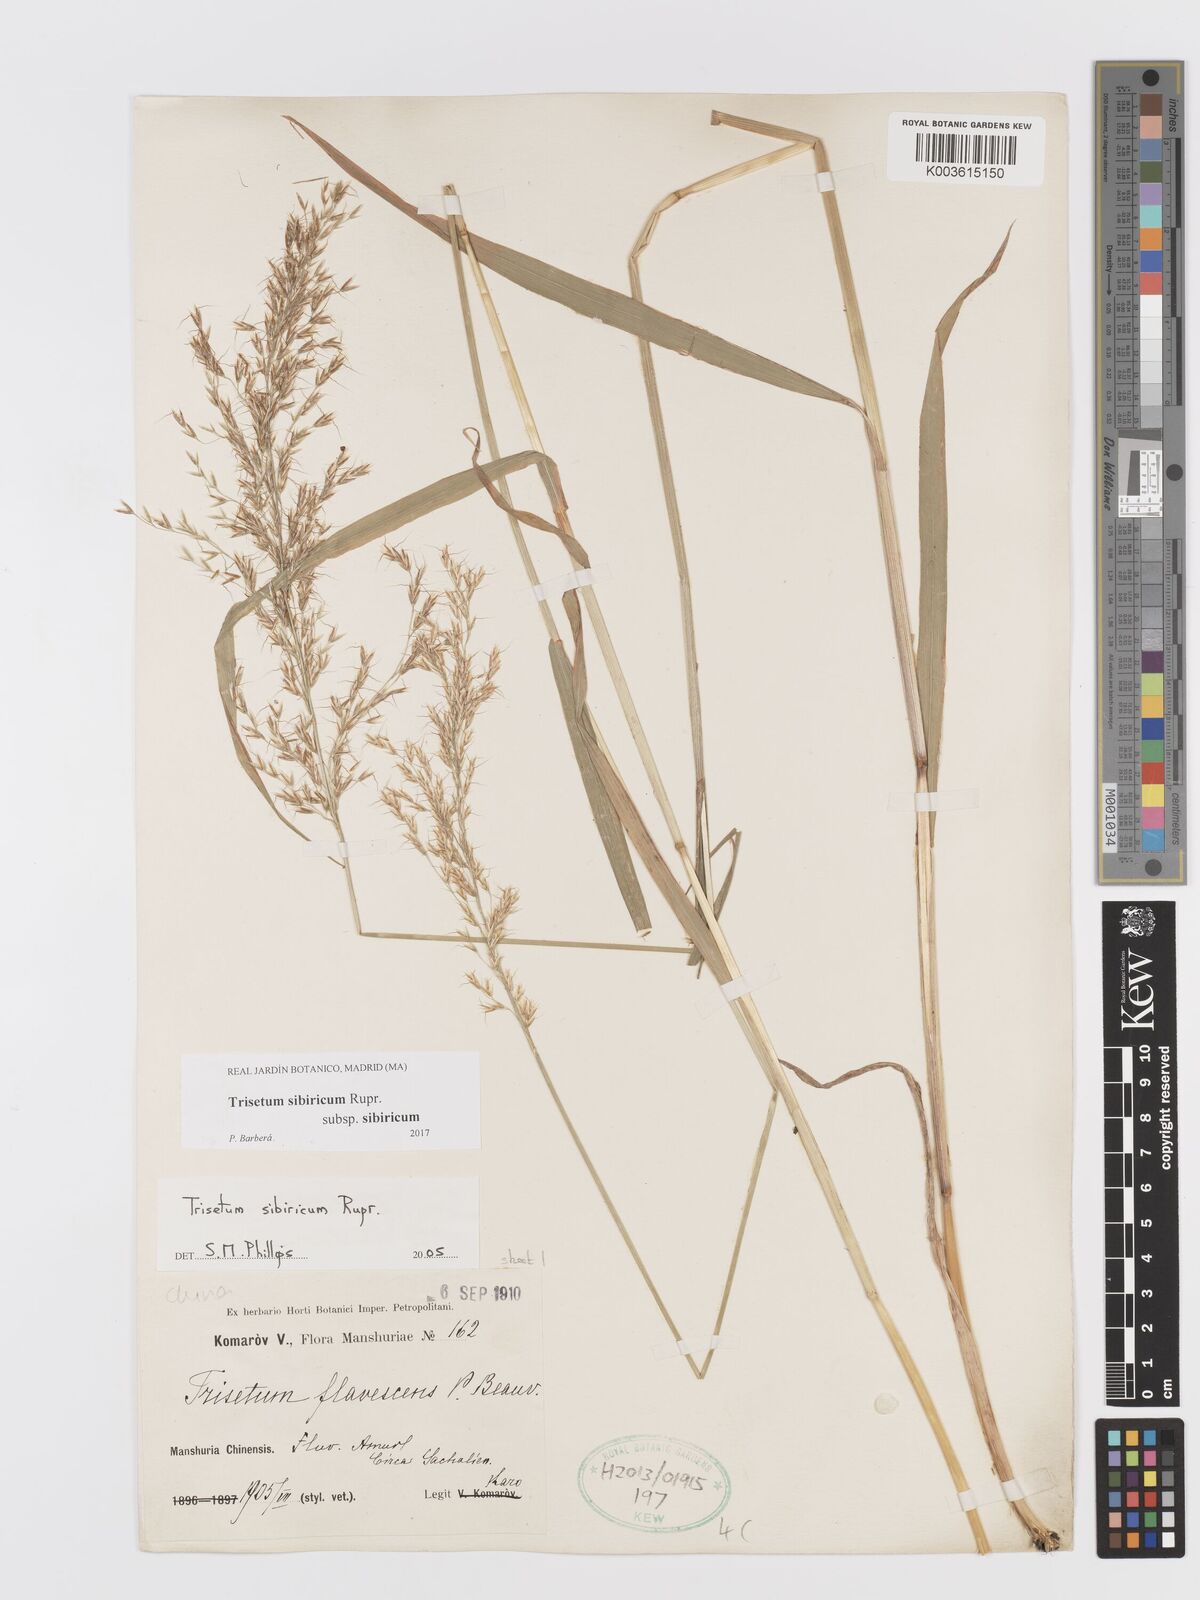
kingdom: Plantae
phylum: Tracheophyta
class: Liliopsida
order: Poales
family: Poaceae
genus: Sibirotrisetum
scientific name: Sibirotrisetum sibiricum
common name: Siberian false oat
